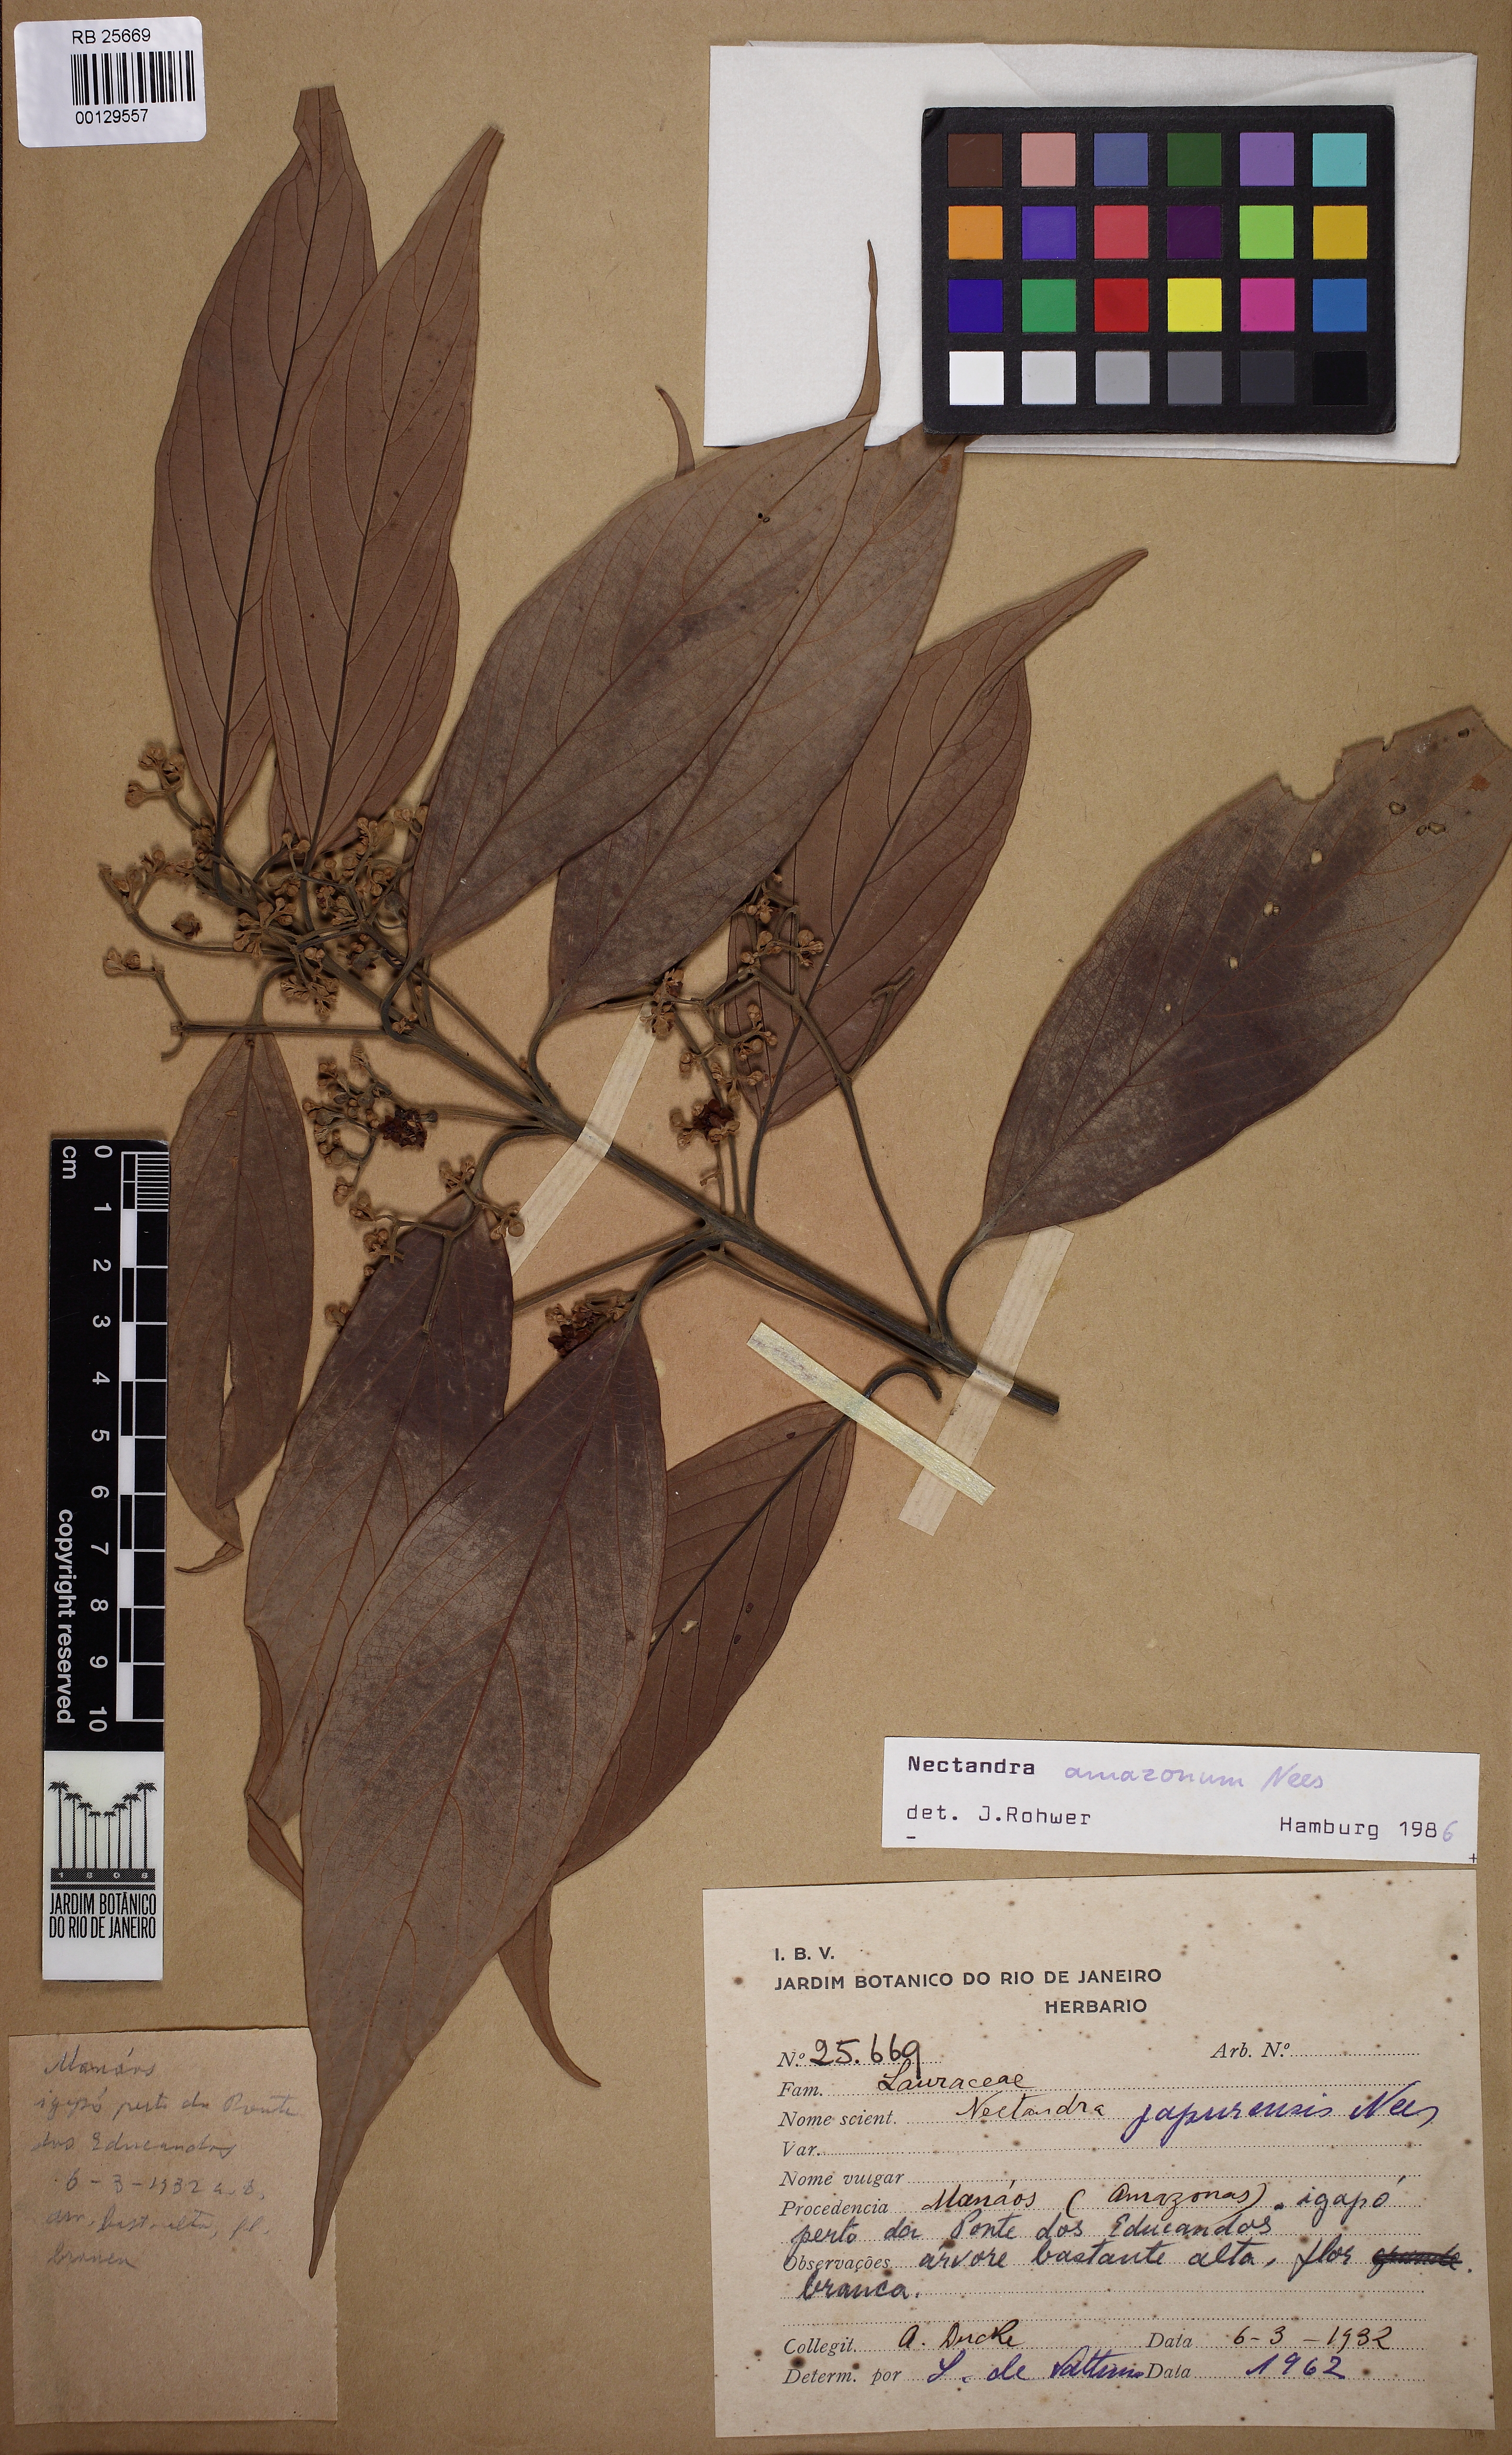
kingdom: Plantae
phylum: Tracheophyta
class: Magnoliopsida
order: Laurales
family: Lauraceae
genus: Nectandra
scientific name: Nectandra amazonum
